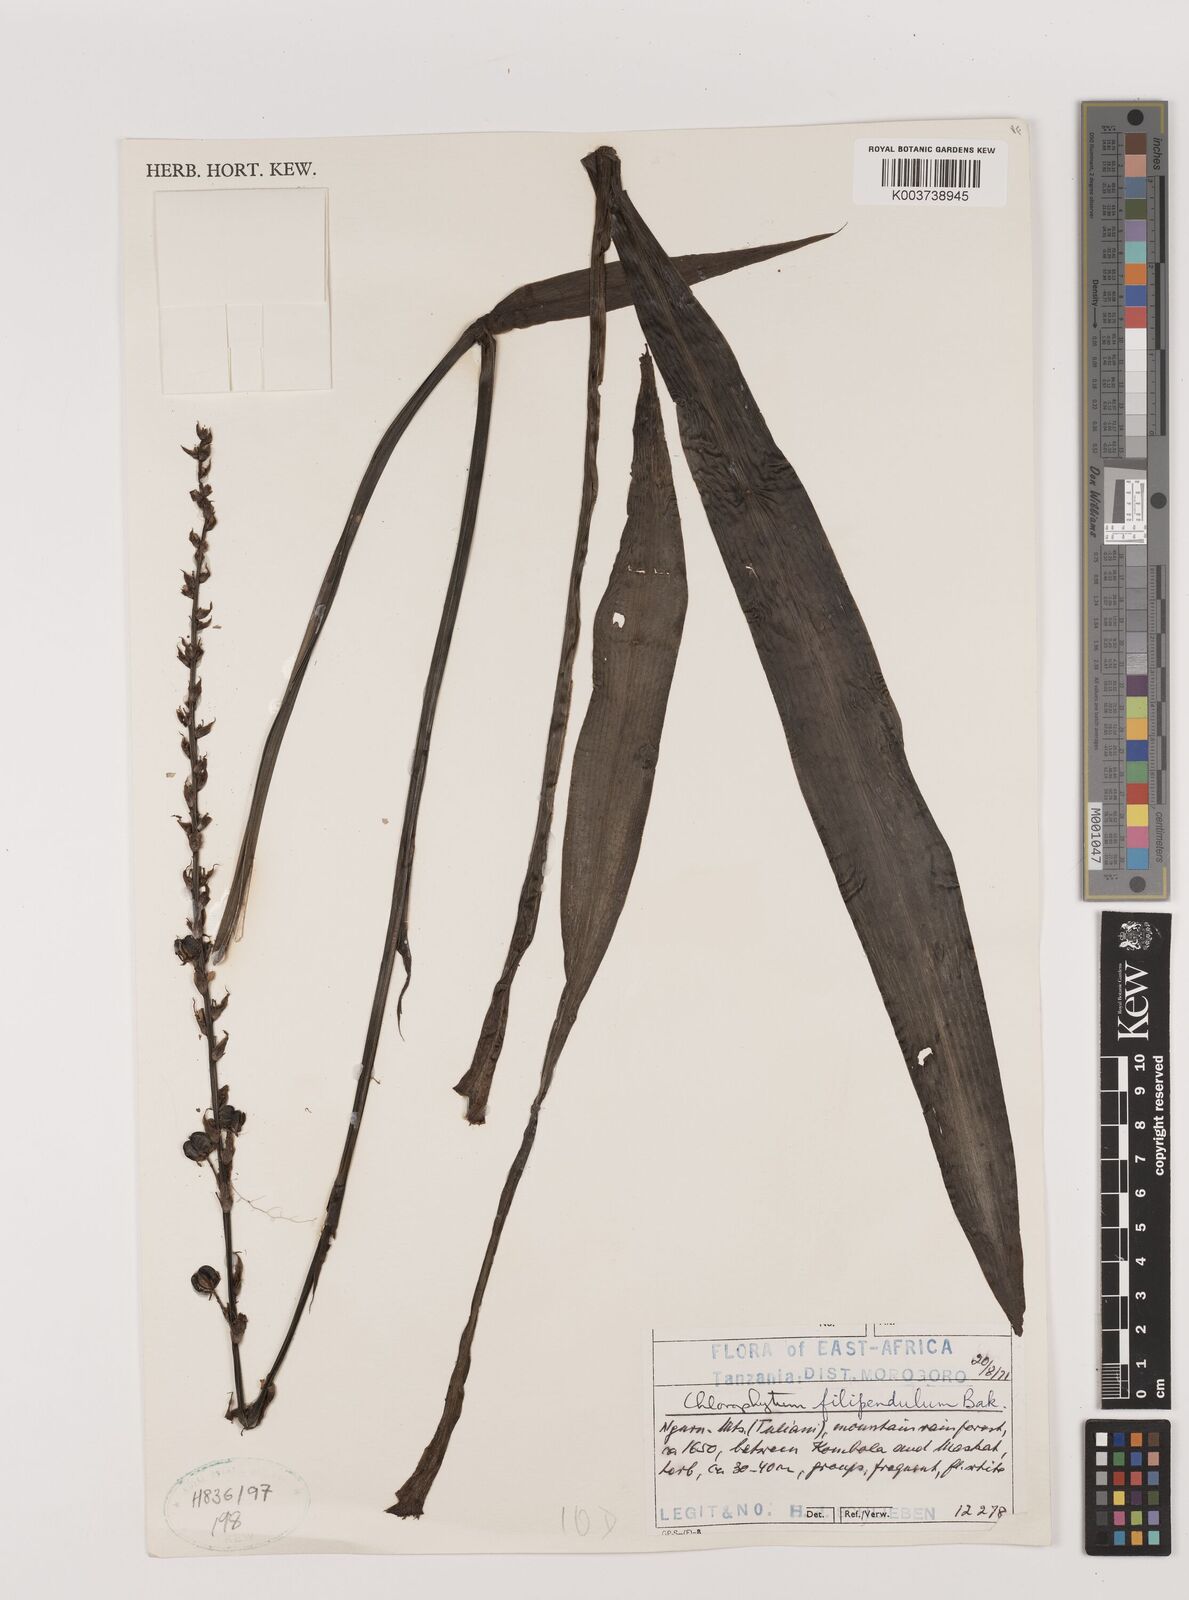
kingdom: Plantae
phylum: Tracheophyta
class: Liliopsida
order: Asparagales
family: Asparagaceae
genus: Chlorophytum
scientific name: Chlorophytum comosum
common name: Spider plant
